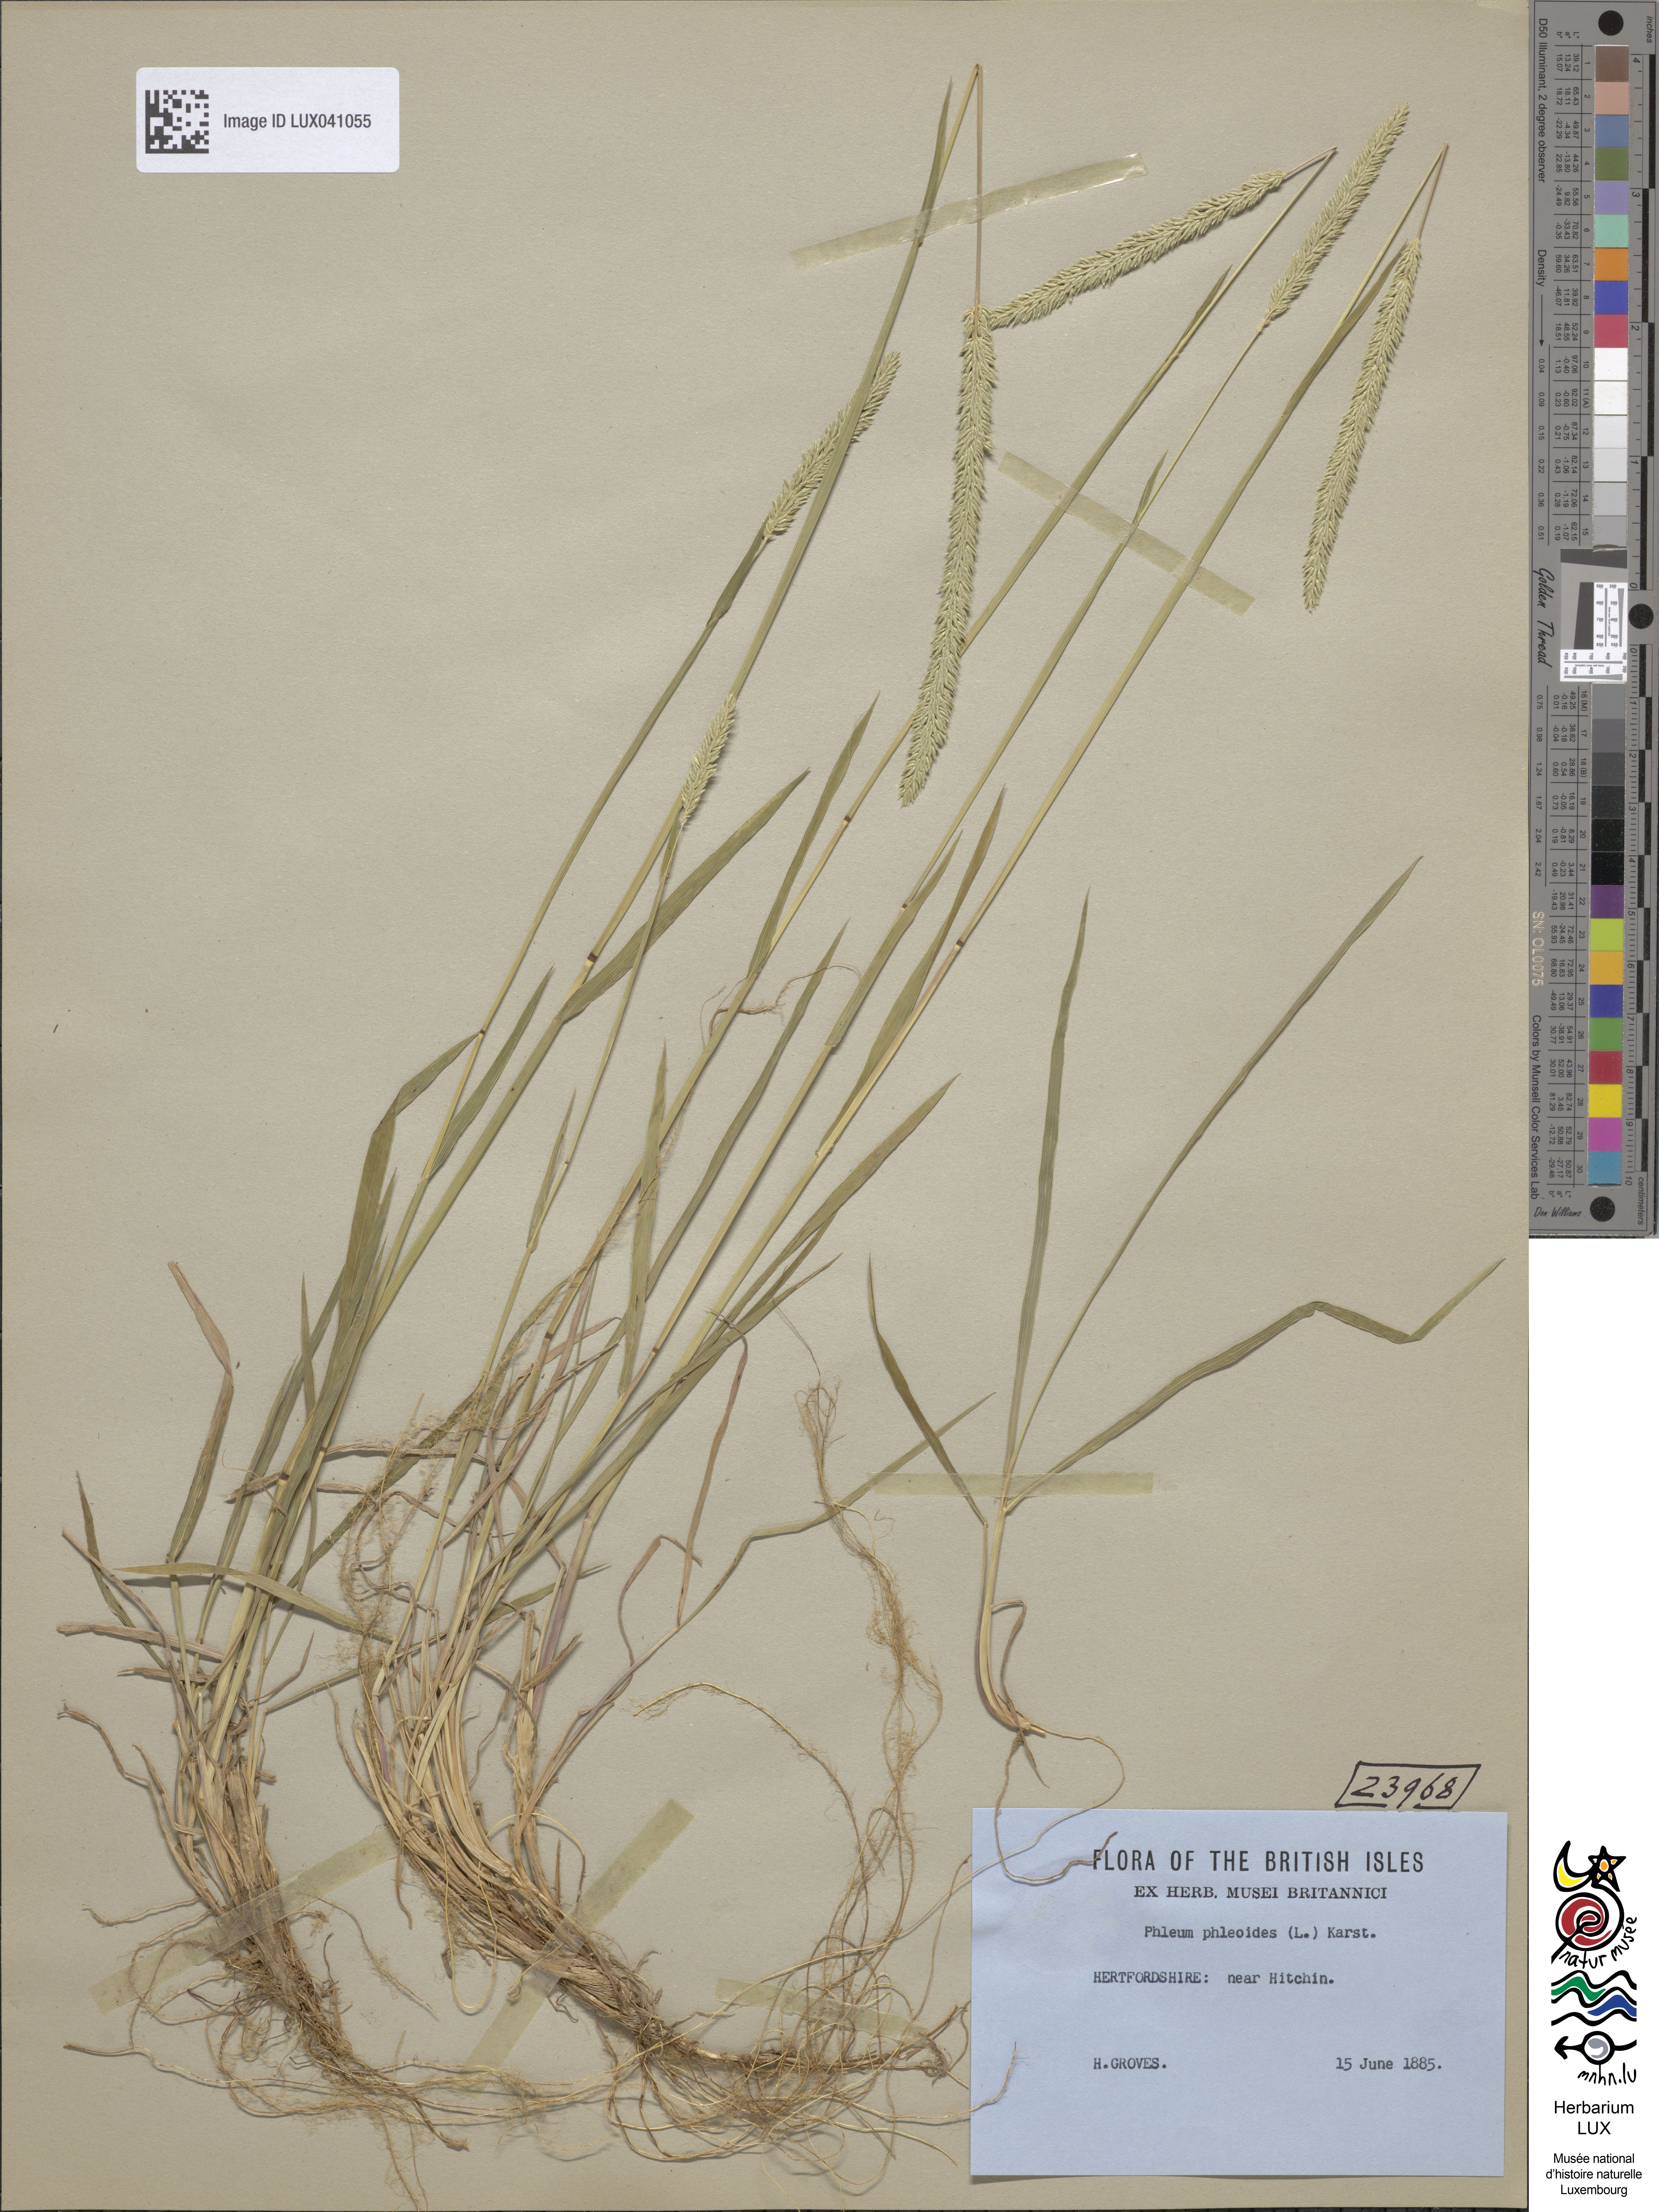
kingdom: Plantae
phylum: Tracheophyta
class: Liliopsida
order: Poales
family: Poaceae
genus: Phleum
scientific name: Phleum phleoides
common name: Purple-stem cat's-tail
